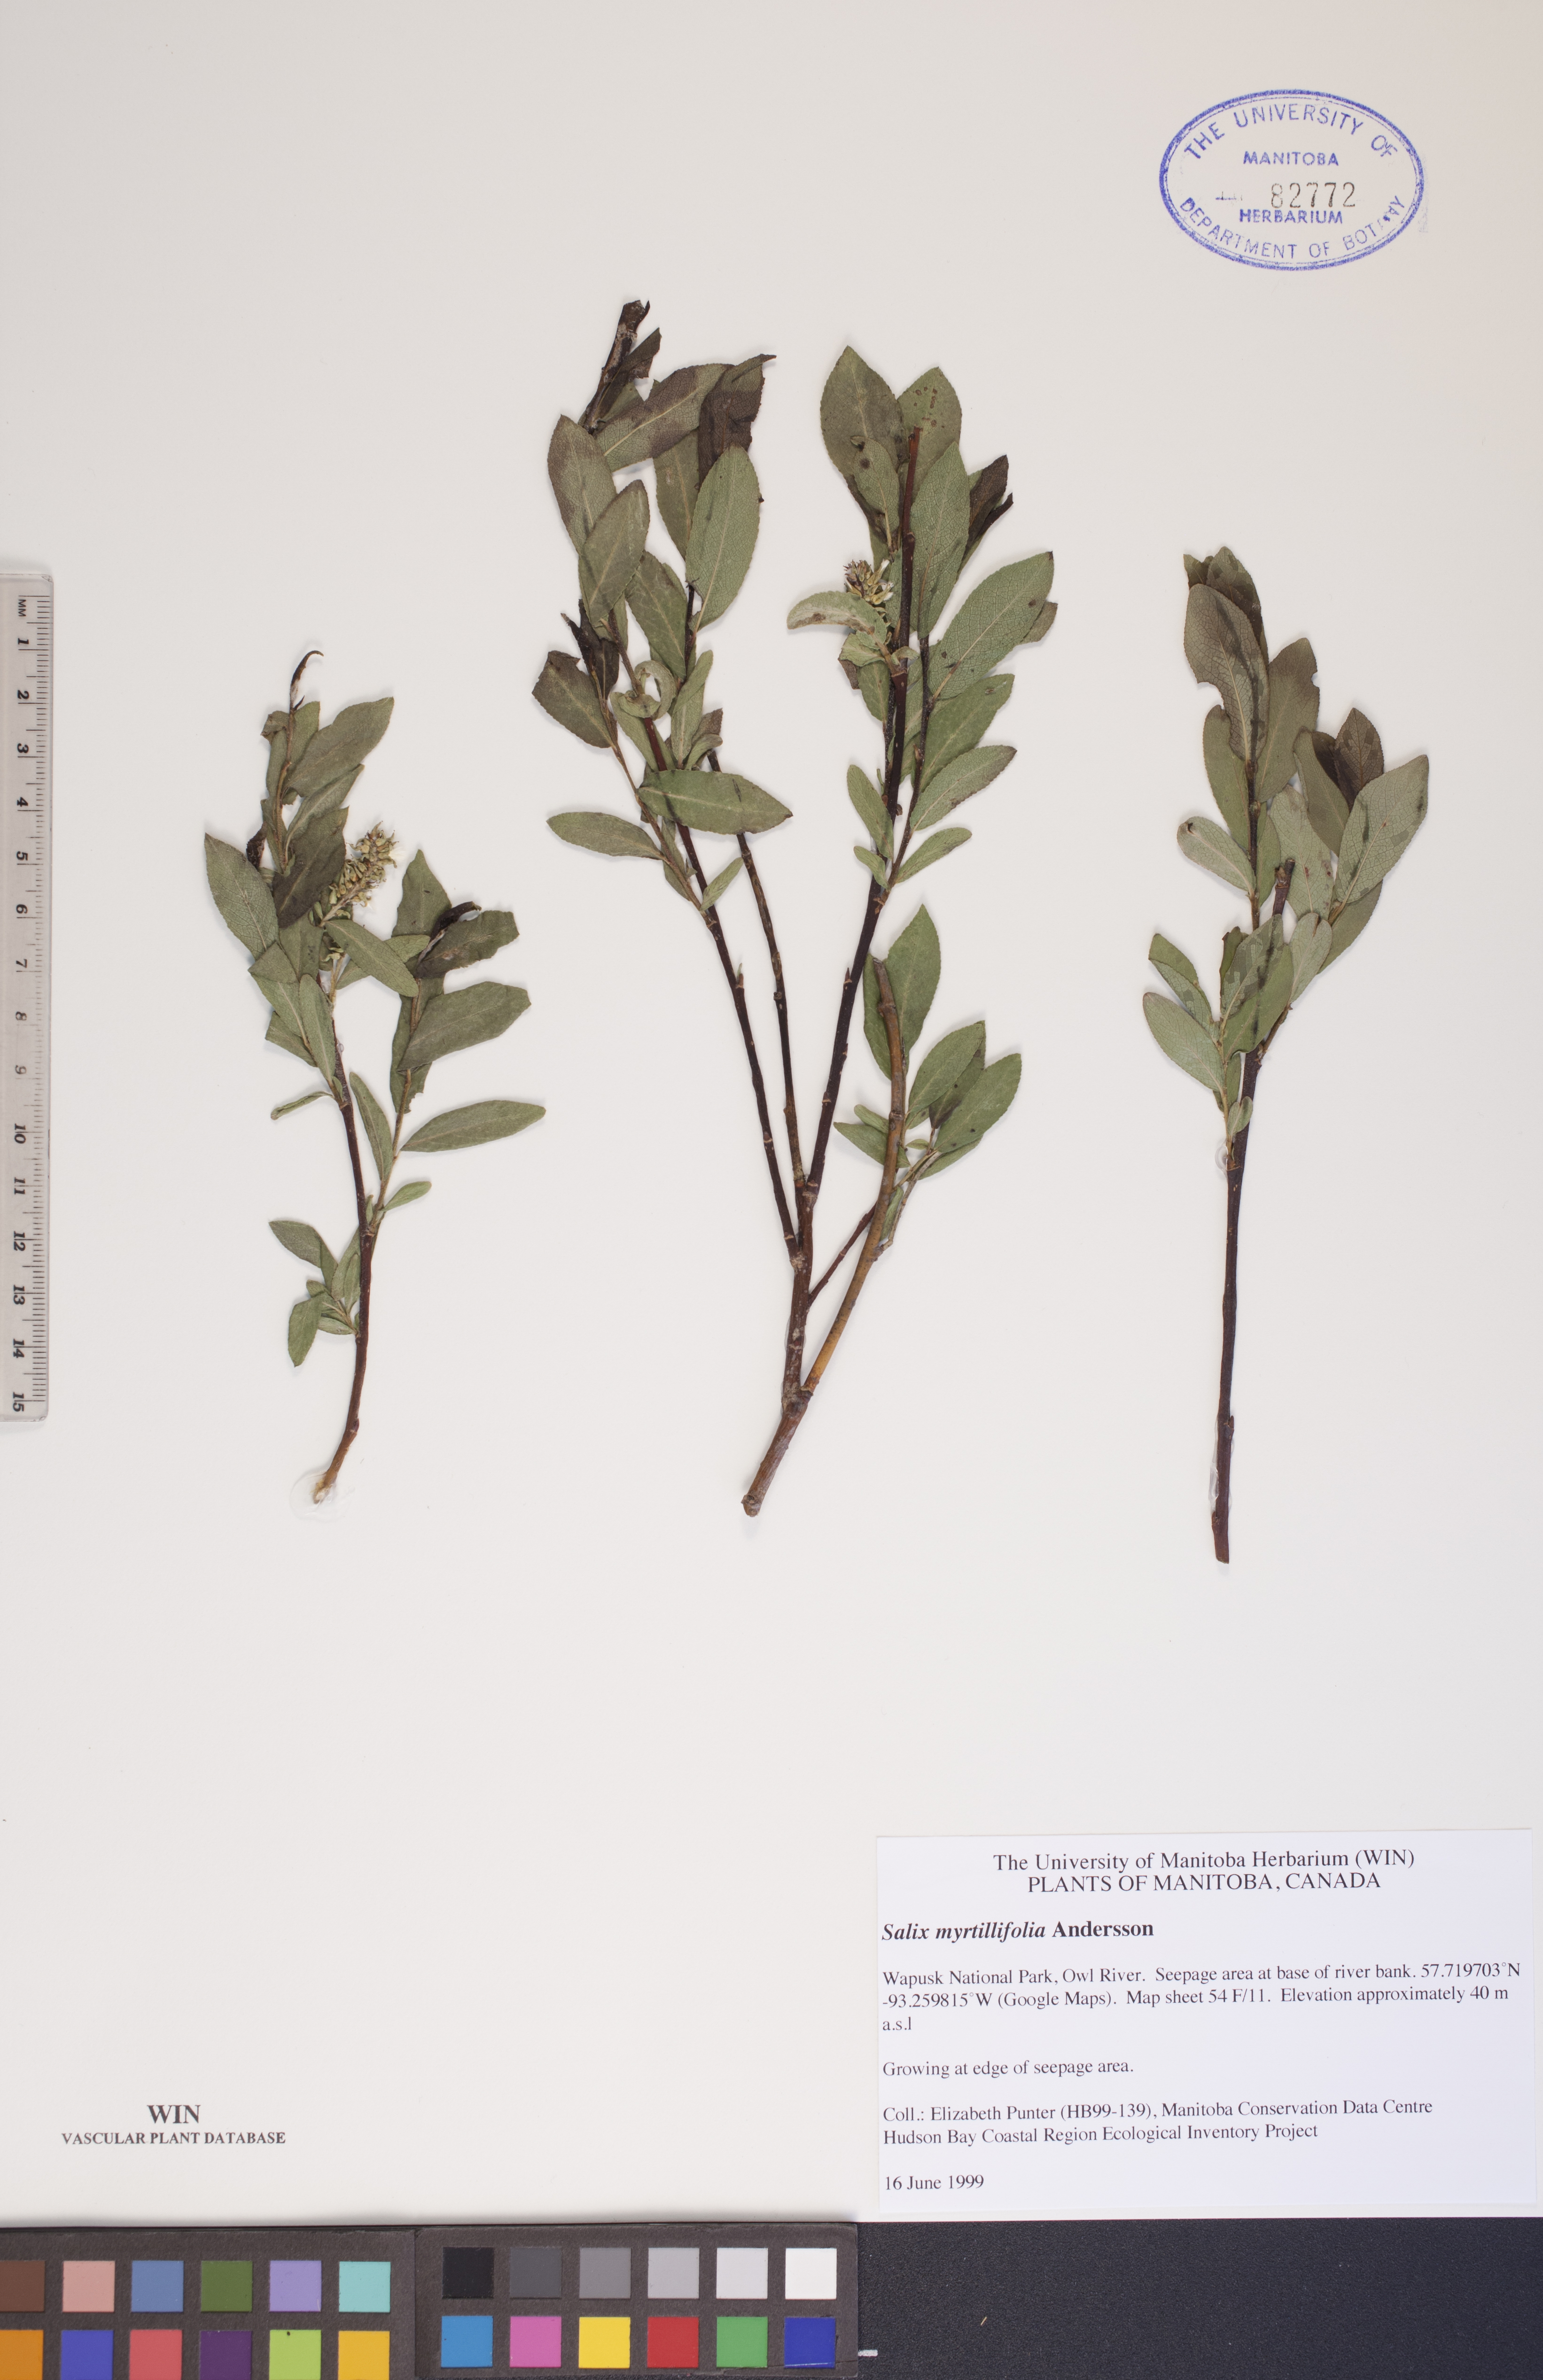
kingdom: Plantae
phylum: Tracheophyta
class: Magnoliopsida
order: Malpighiales
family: Salicaceae
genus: Salix
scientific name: Salix myrtillifolia
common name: Bilberry willow
